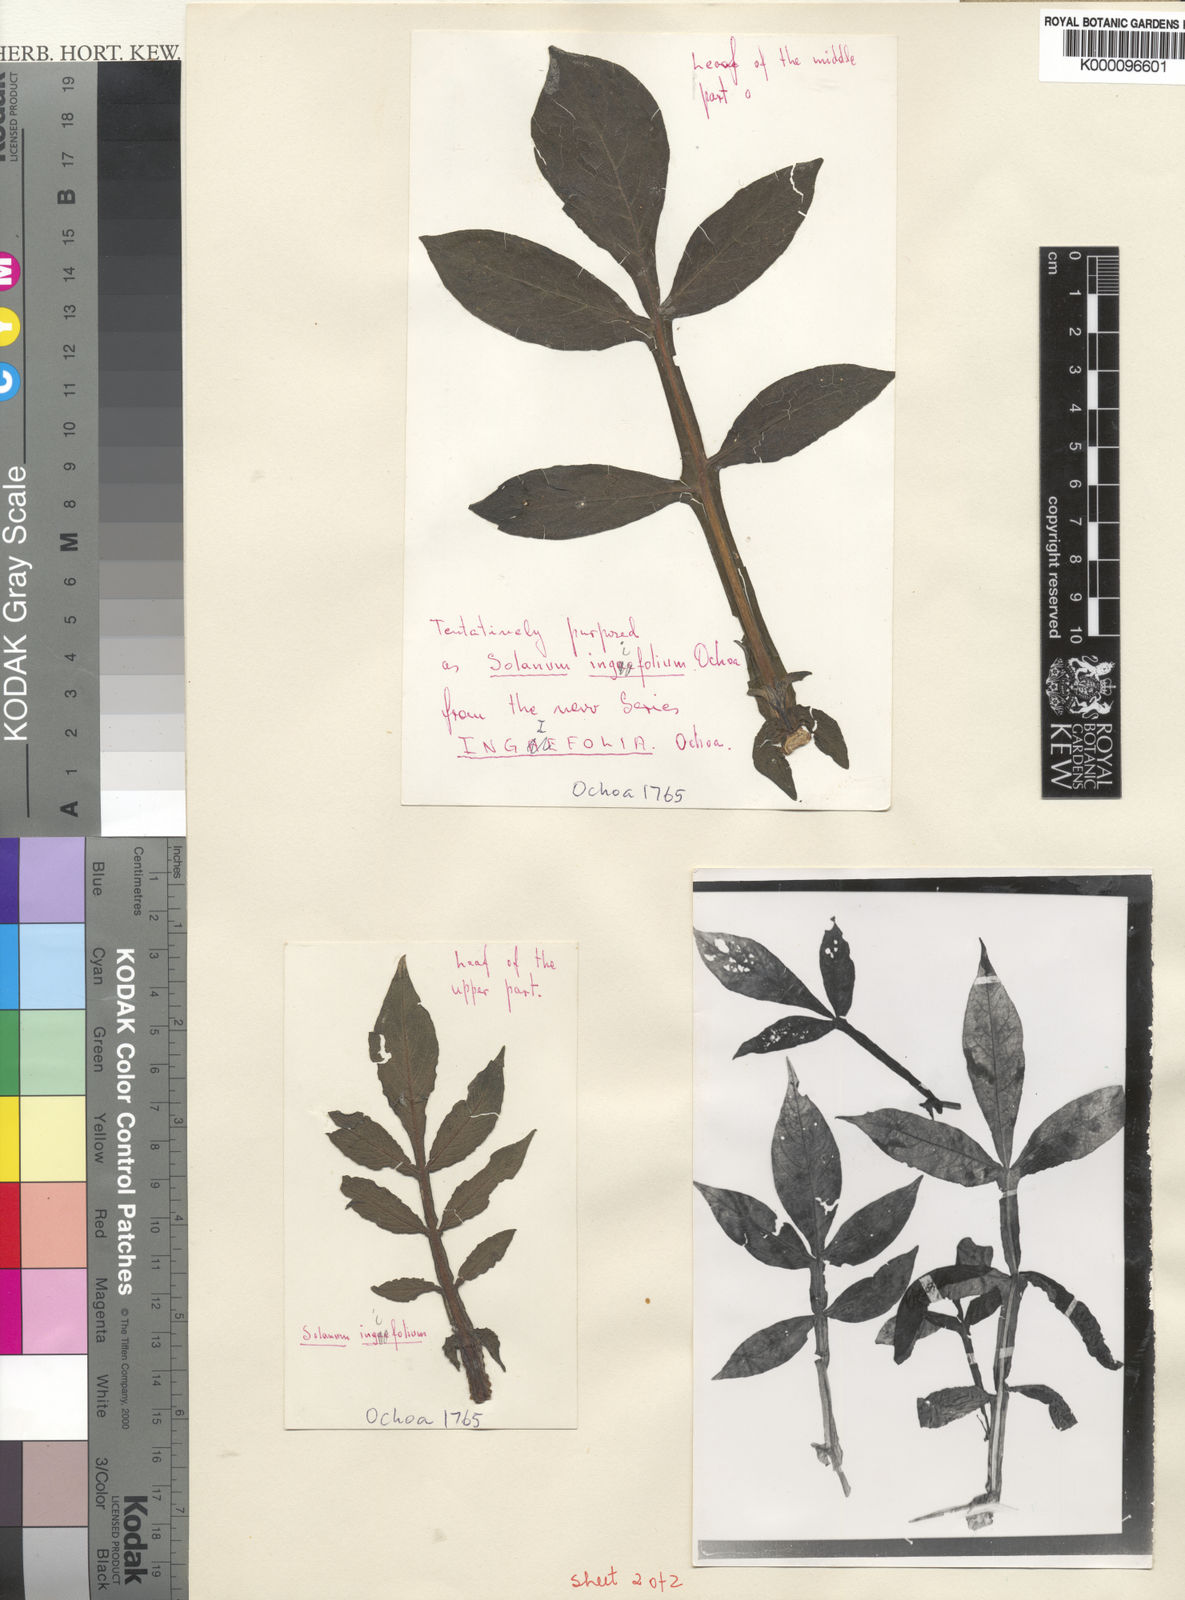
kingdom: Plantae
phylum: Tracheophyta
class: Magnoliopsida
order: Solanales
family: Solanaceae
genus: Solanum
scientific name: Solanum raquialatum
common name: Papa de wisco
